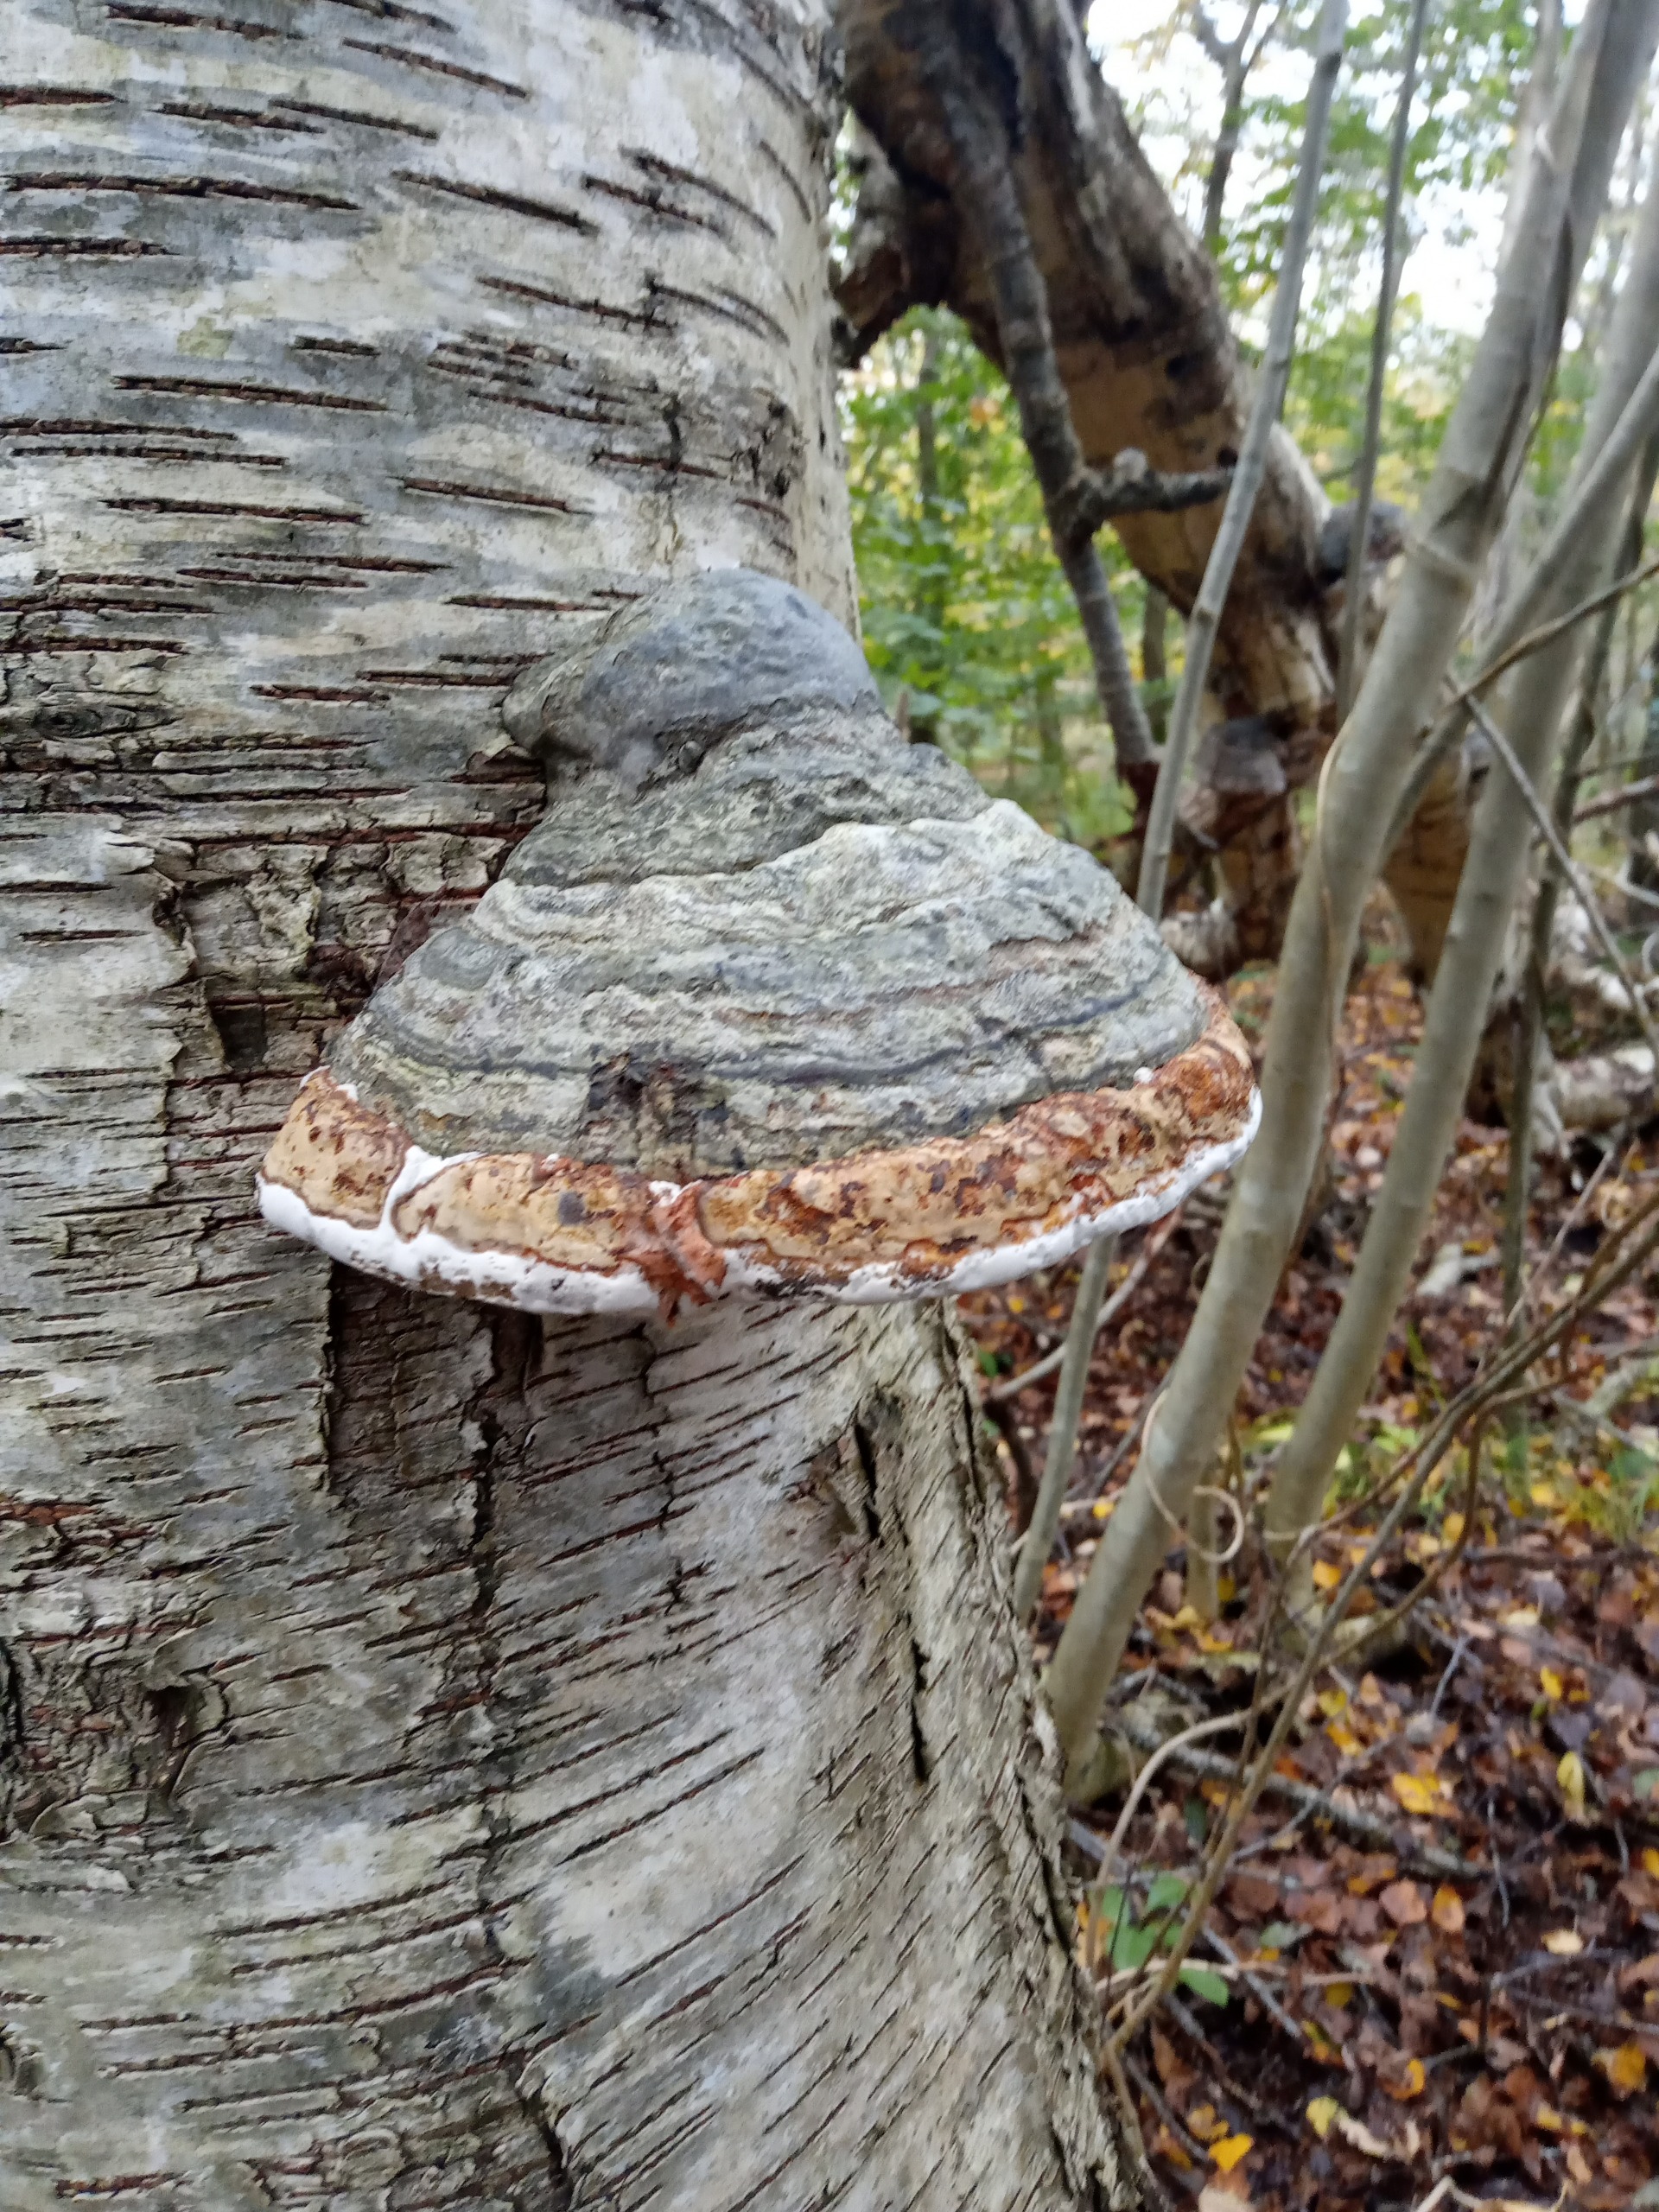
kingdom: Fungi
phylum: Basidiomycota
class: Agaricomycetes
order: Polyporales
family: Polyporaceae
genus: Fomes
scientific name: Fomes fomentarius
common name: Tøndersvamp
